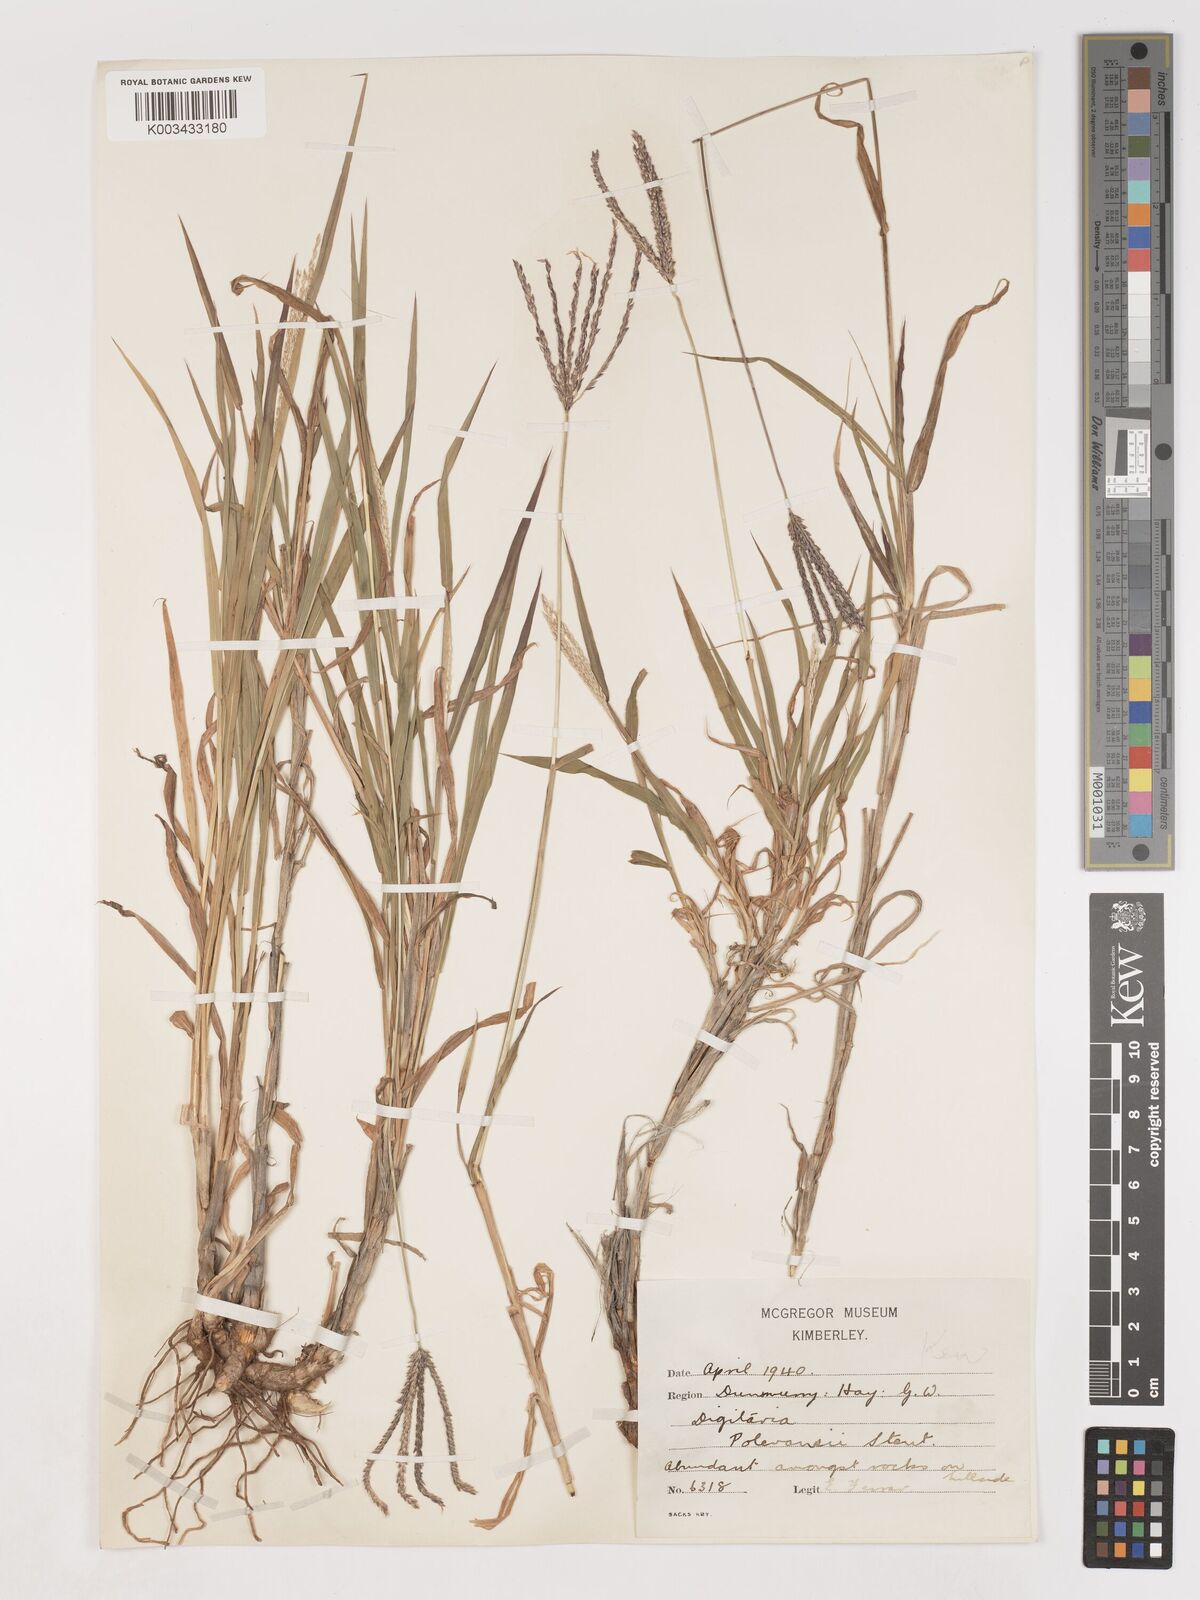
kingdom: Plantae
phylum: Tracheophyta
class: Liliopsida
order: Poales
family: Poaceae
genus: Digitaria
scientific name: Digitaria milanjiana
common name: Madagascar crabgrass
